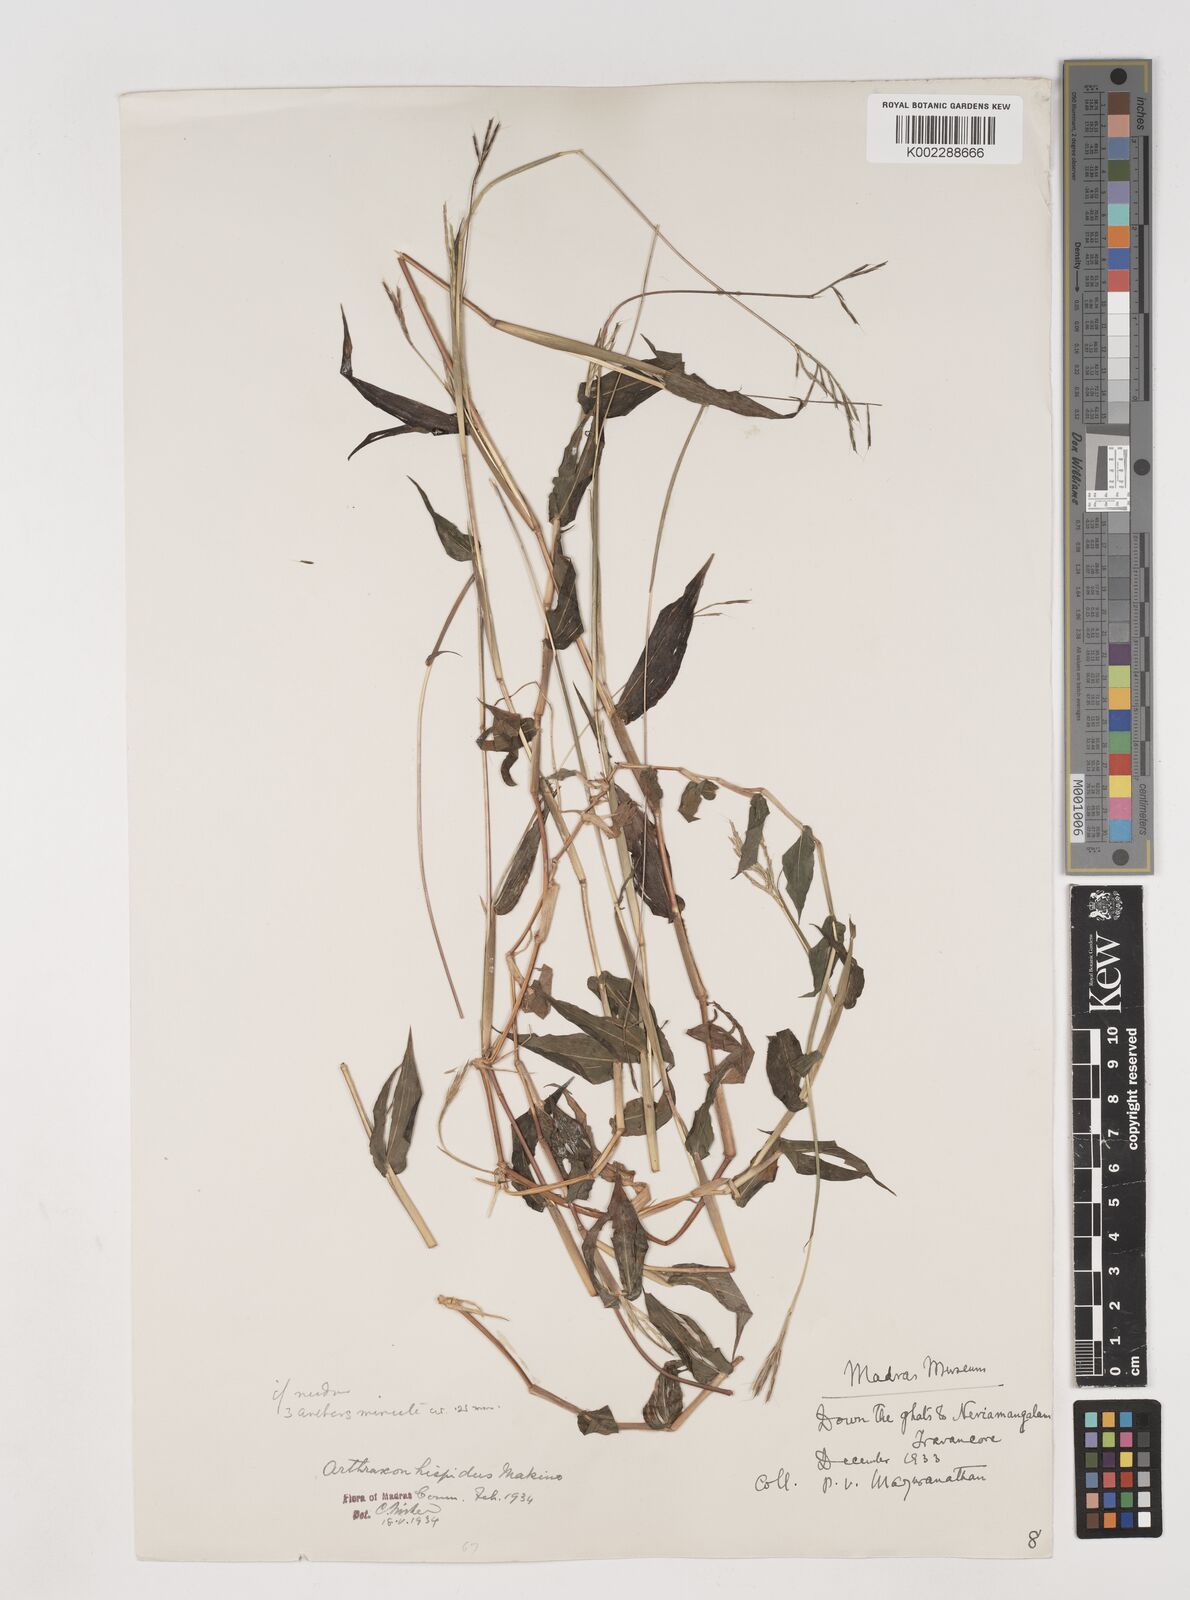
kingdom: Plantae
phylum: Tracheophyta
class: Liliopsida
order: Poales
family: Poaceae
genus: Arthraxon
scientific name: Arthraxon nudus
